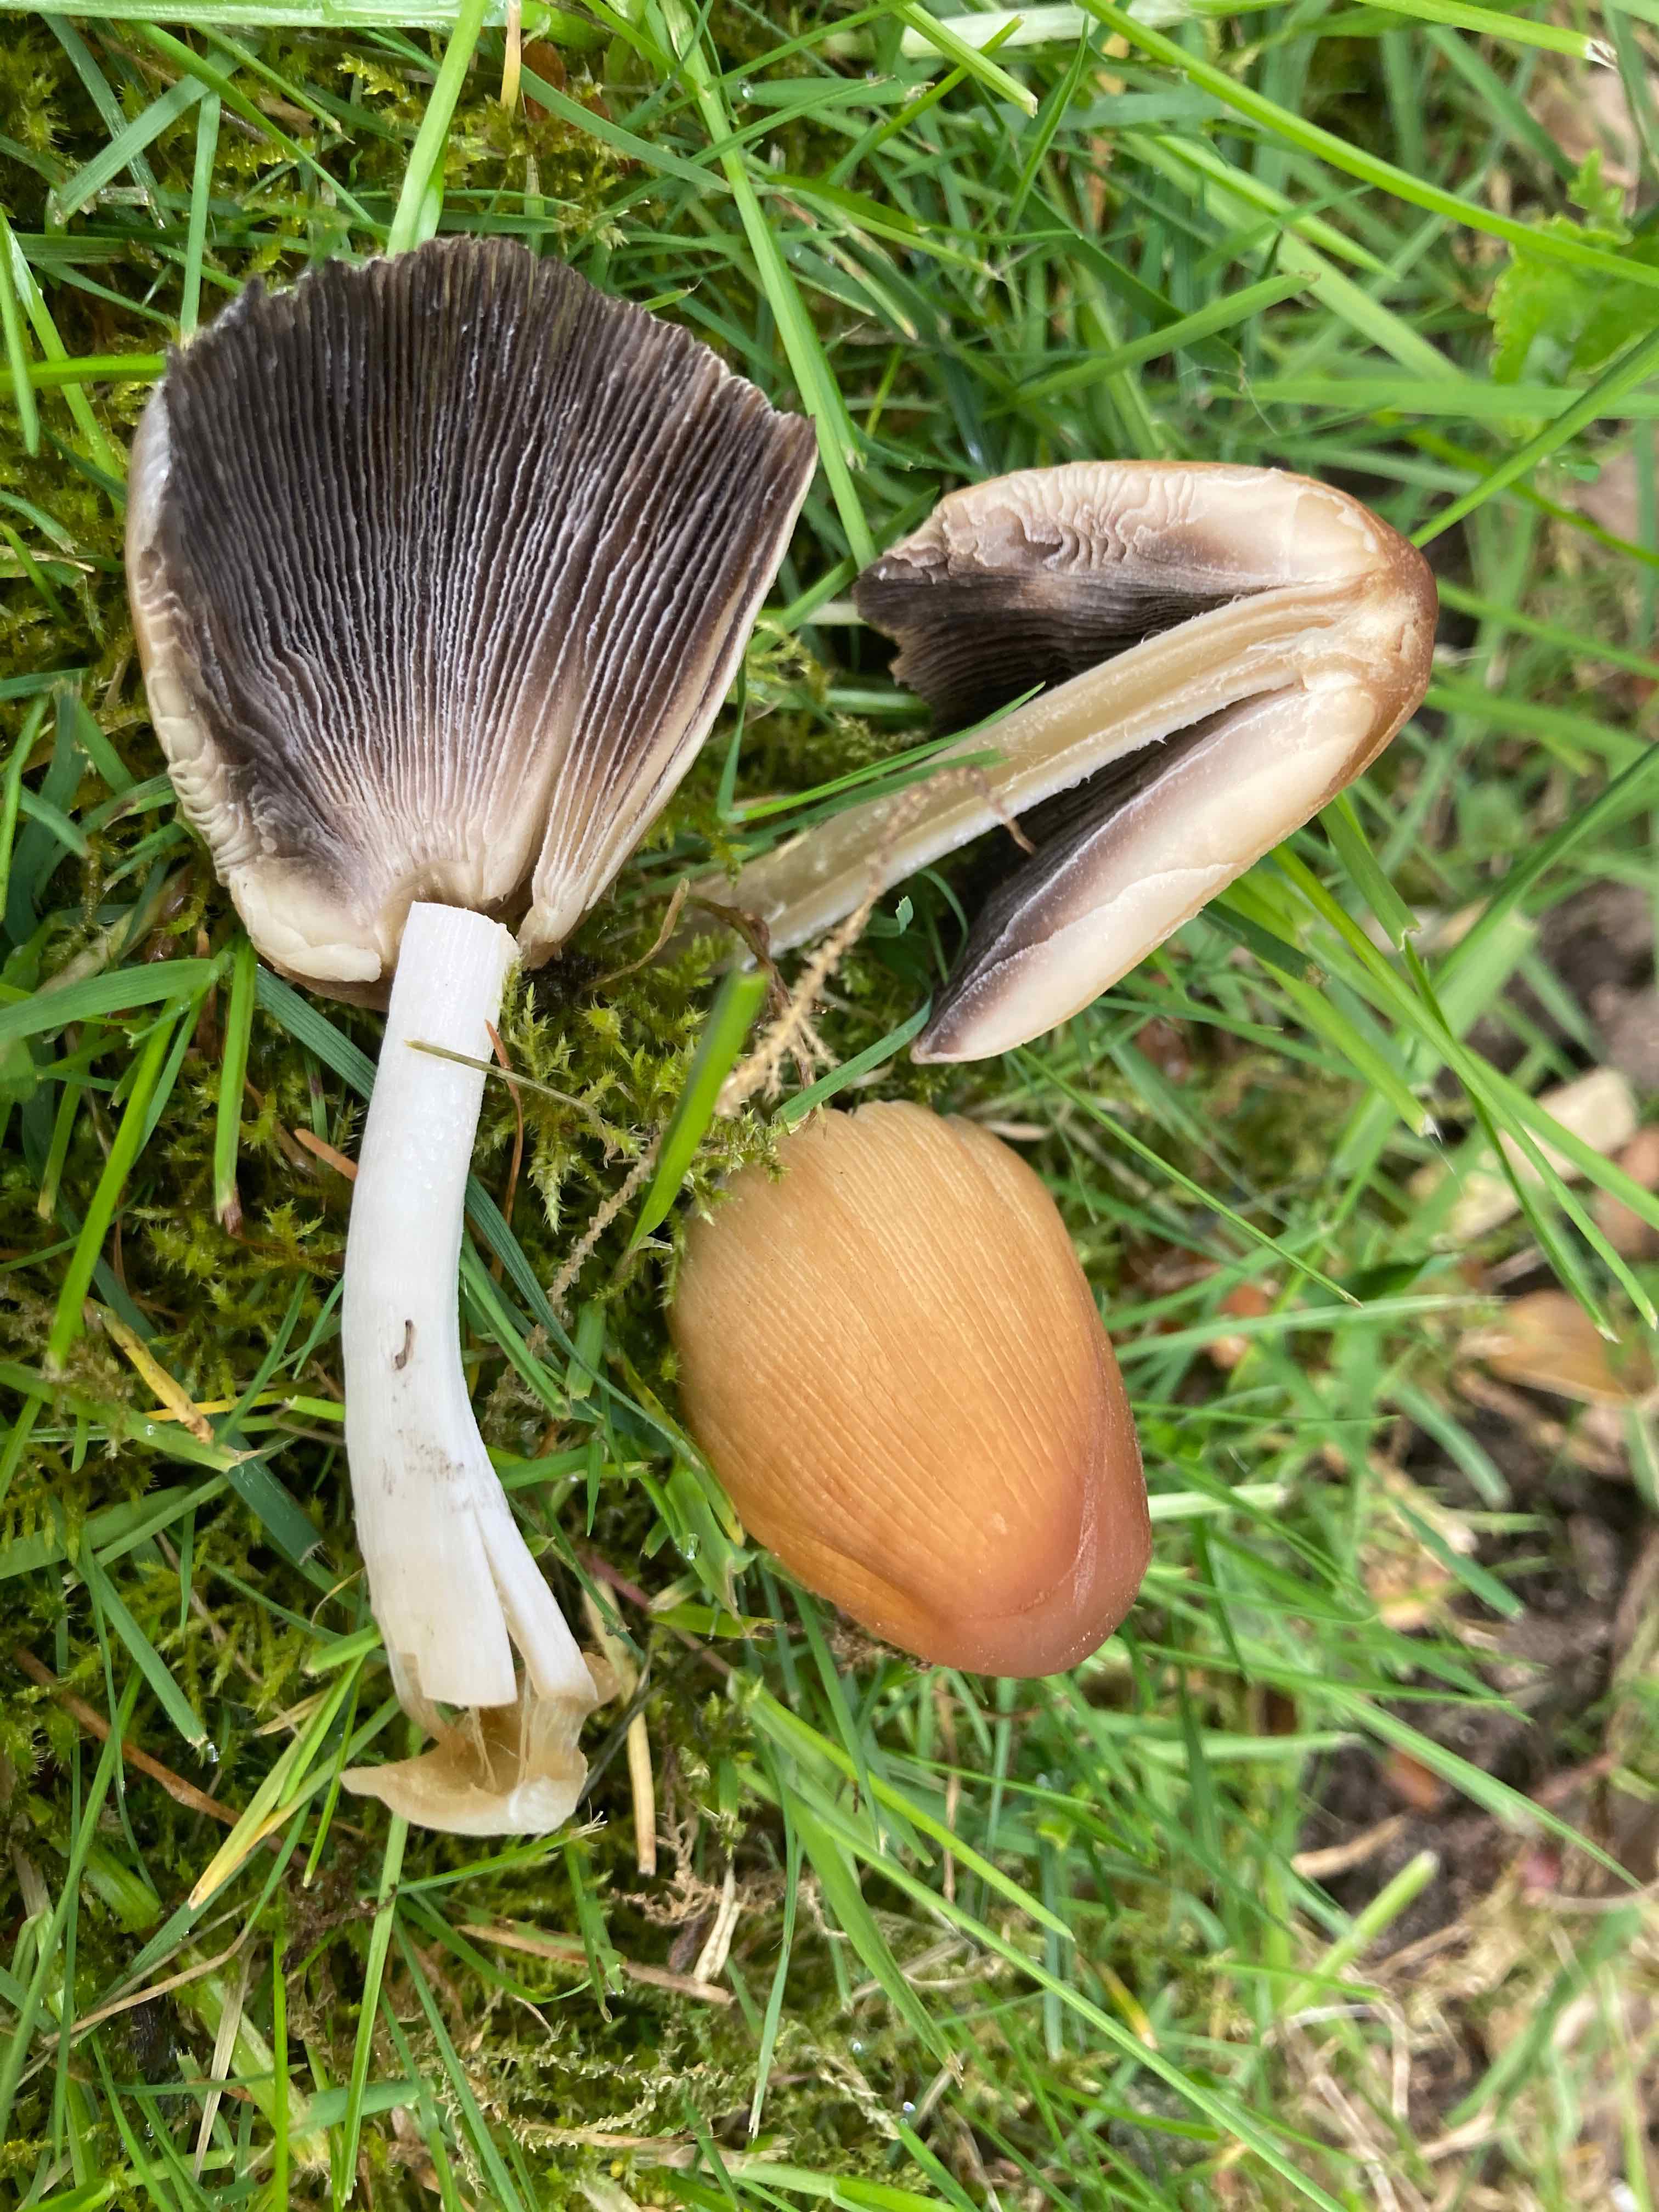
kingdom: Fungi
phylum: Basidiomycota
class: Agaricomycetes
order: Agaricales
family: Psathyrellaceae
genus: Coprinellus
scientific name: Coprinellus micaceus
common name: glimmer-blækhat
